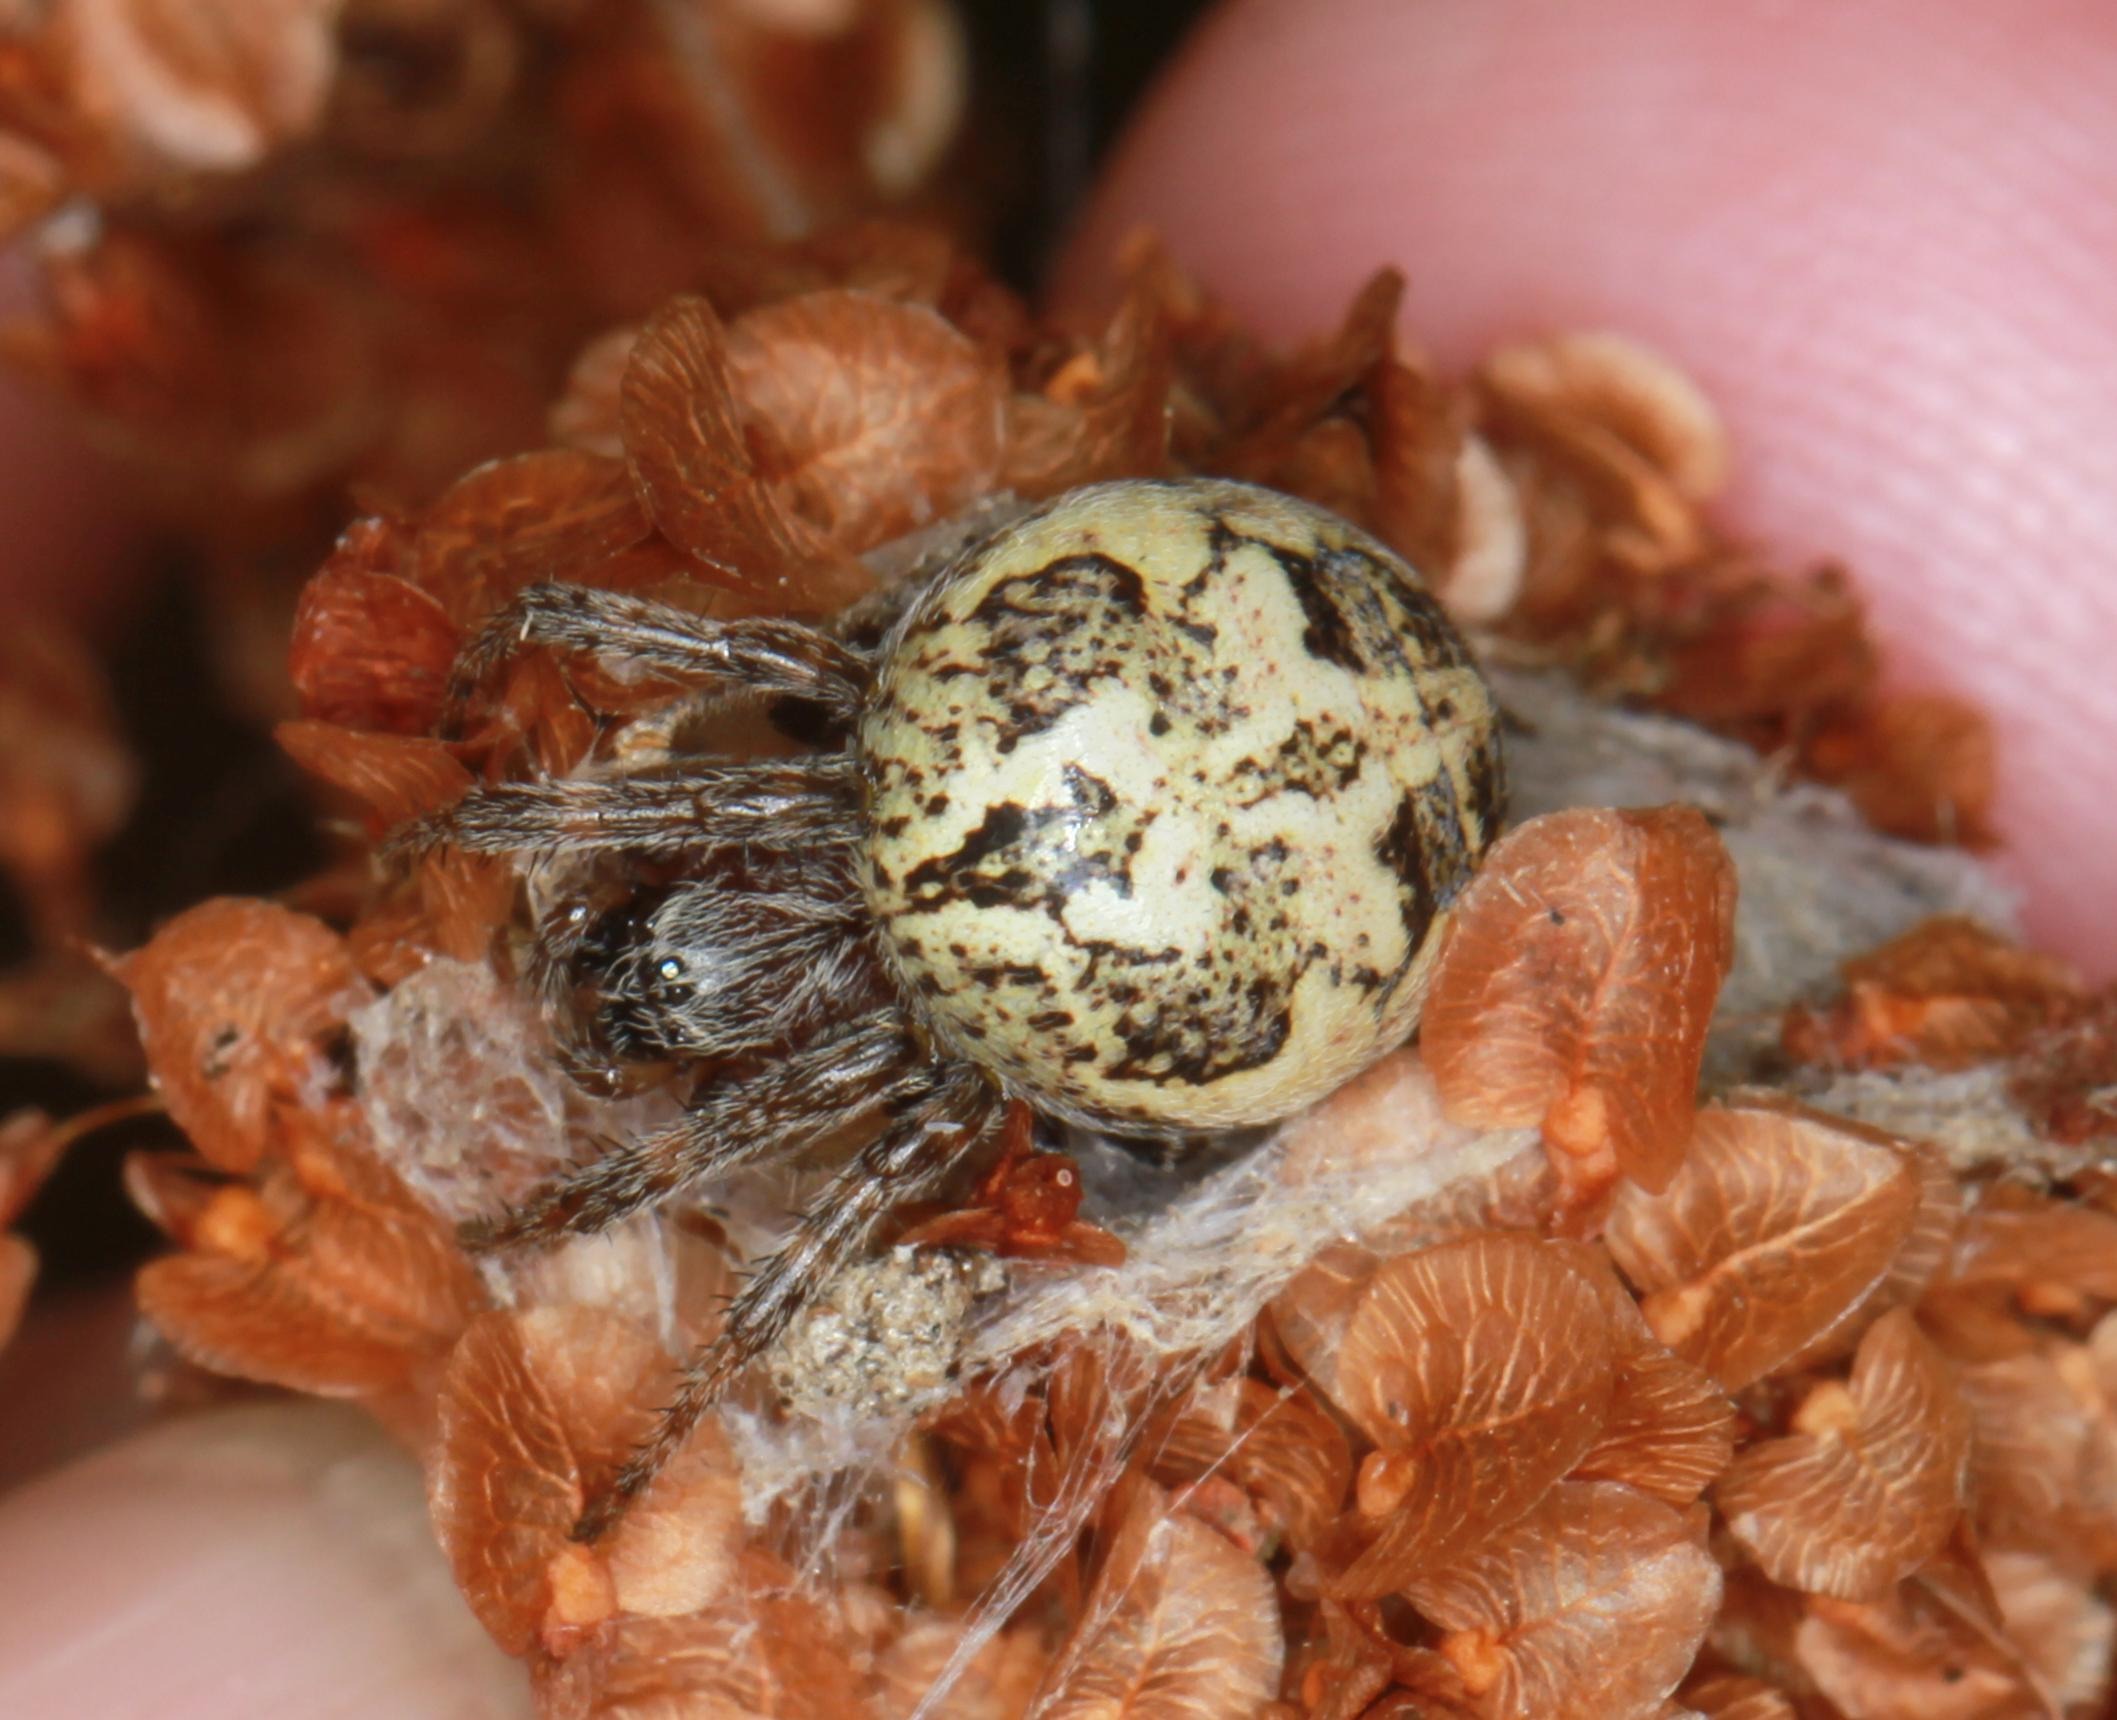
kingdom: Animalia
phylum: Arthropoda
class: Arachnida
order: Araneae
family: Araneidae
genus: Larinioides
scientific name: Larinioides cornutus
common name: Sivhjulspinder
